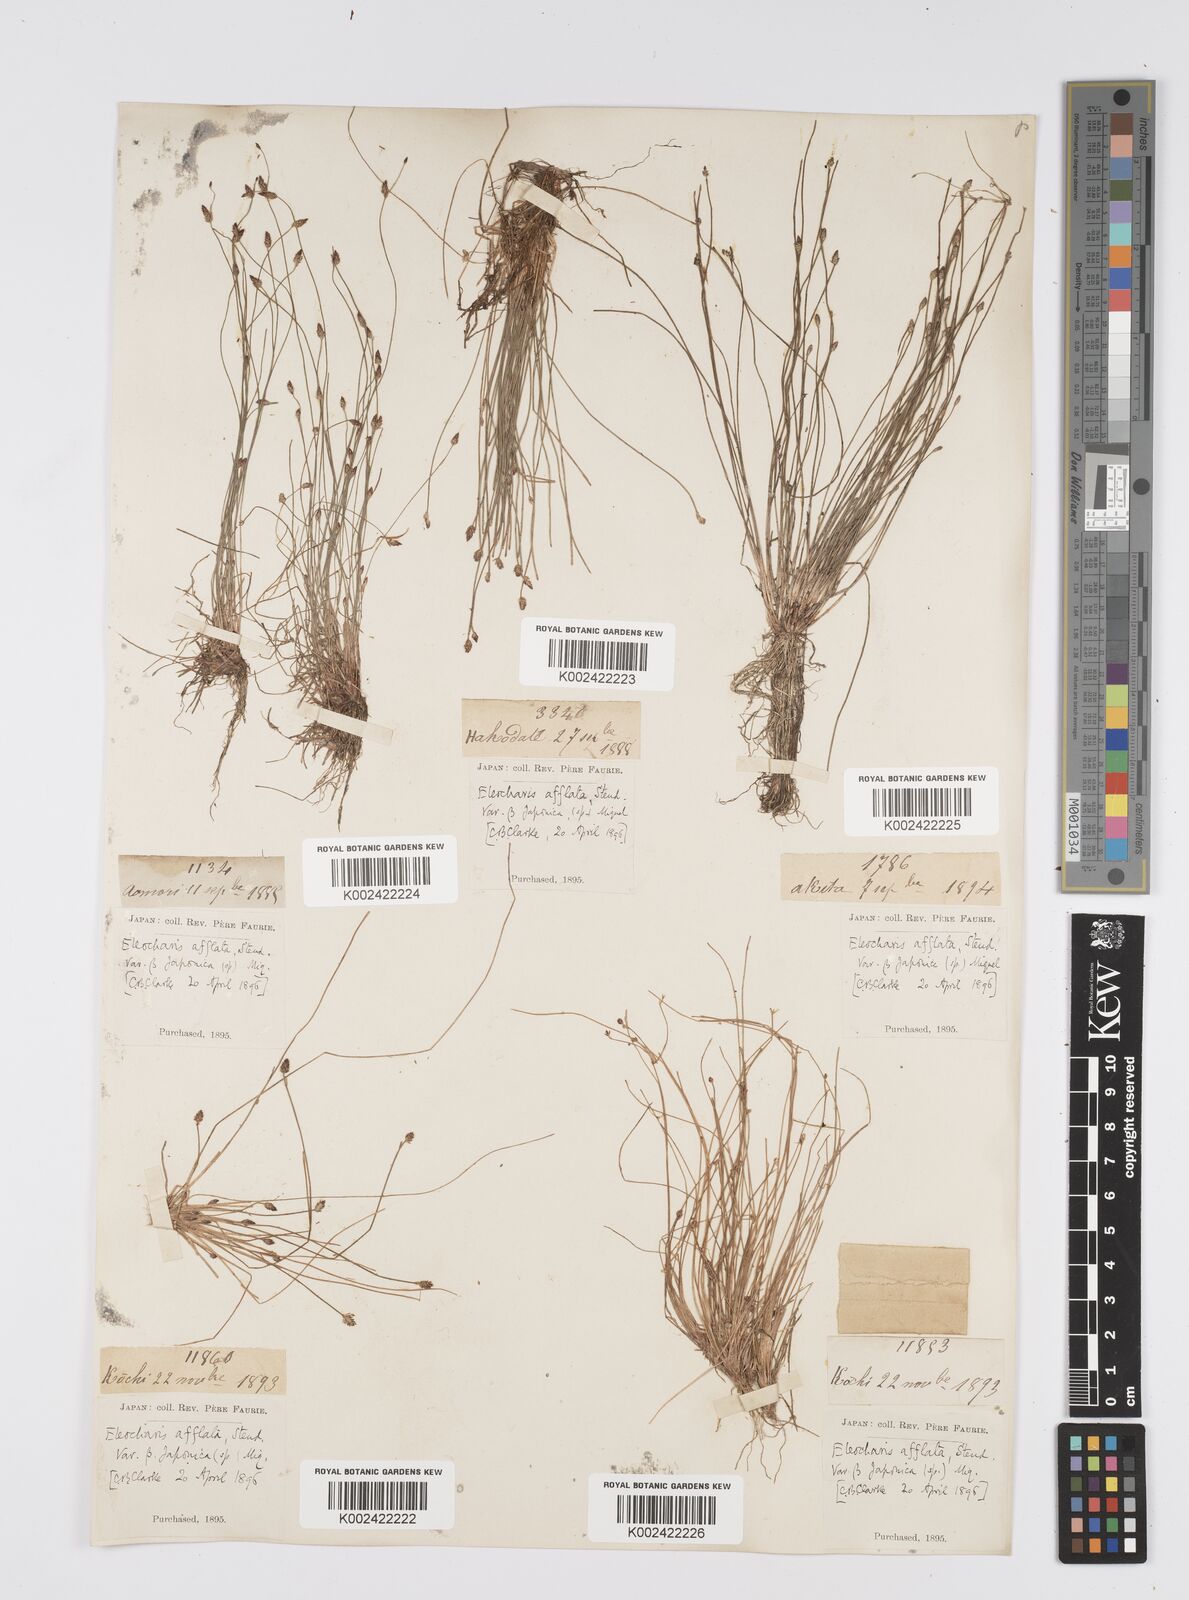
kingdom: Plantae
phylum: Tracheophyta
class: Liliopsida
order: Poales
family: Cyperaceae
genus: Eleocharis
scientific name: Eleocharis pellucida
